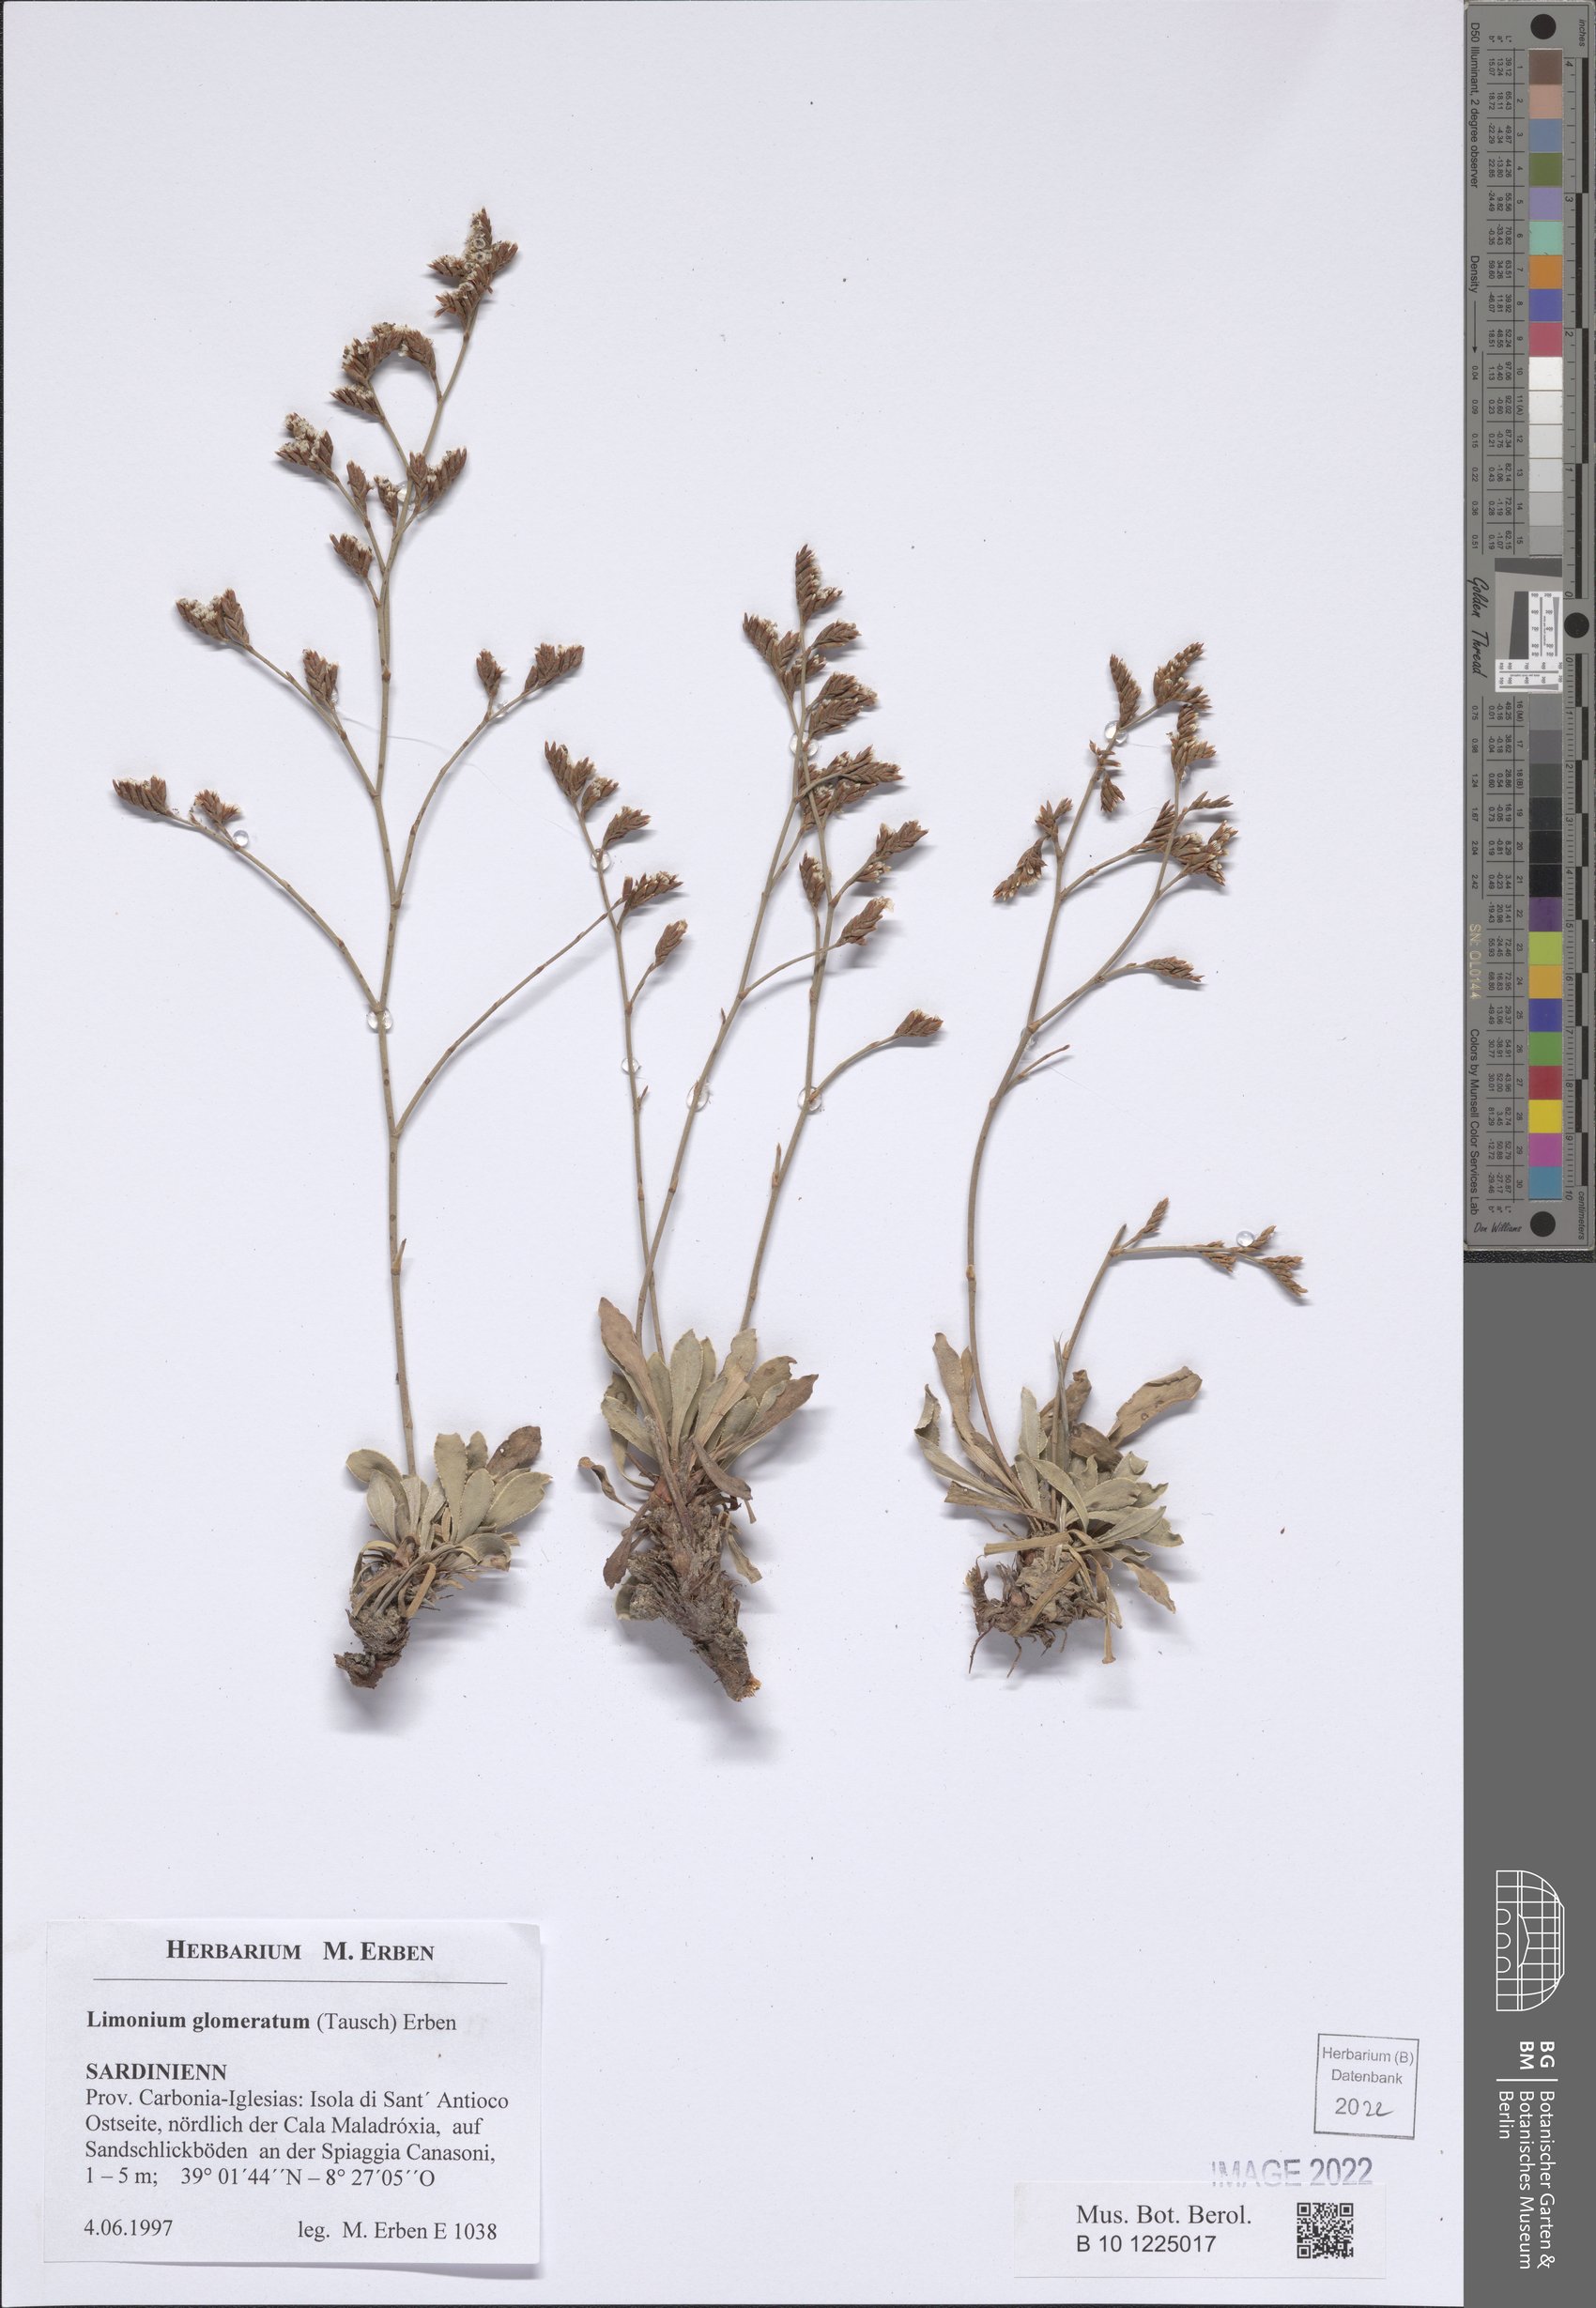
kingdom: Plantae
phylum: Tracheophyta
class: Magnoliopsida
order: Caryophyllales
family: Plumbaginaceae
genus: Limonium
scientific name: Limonium glomeratum
